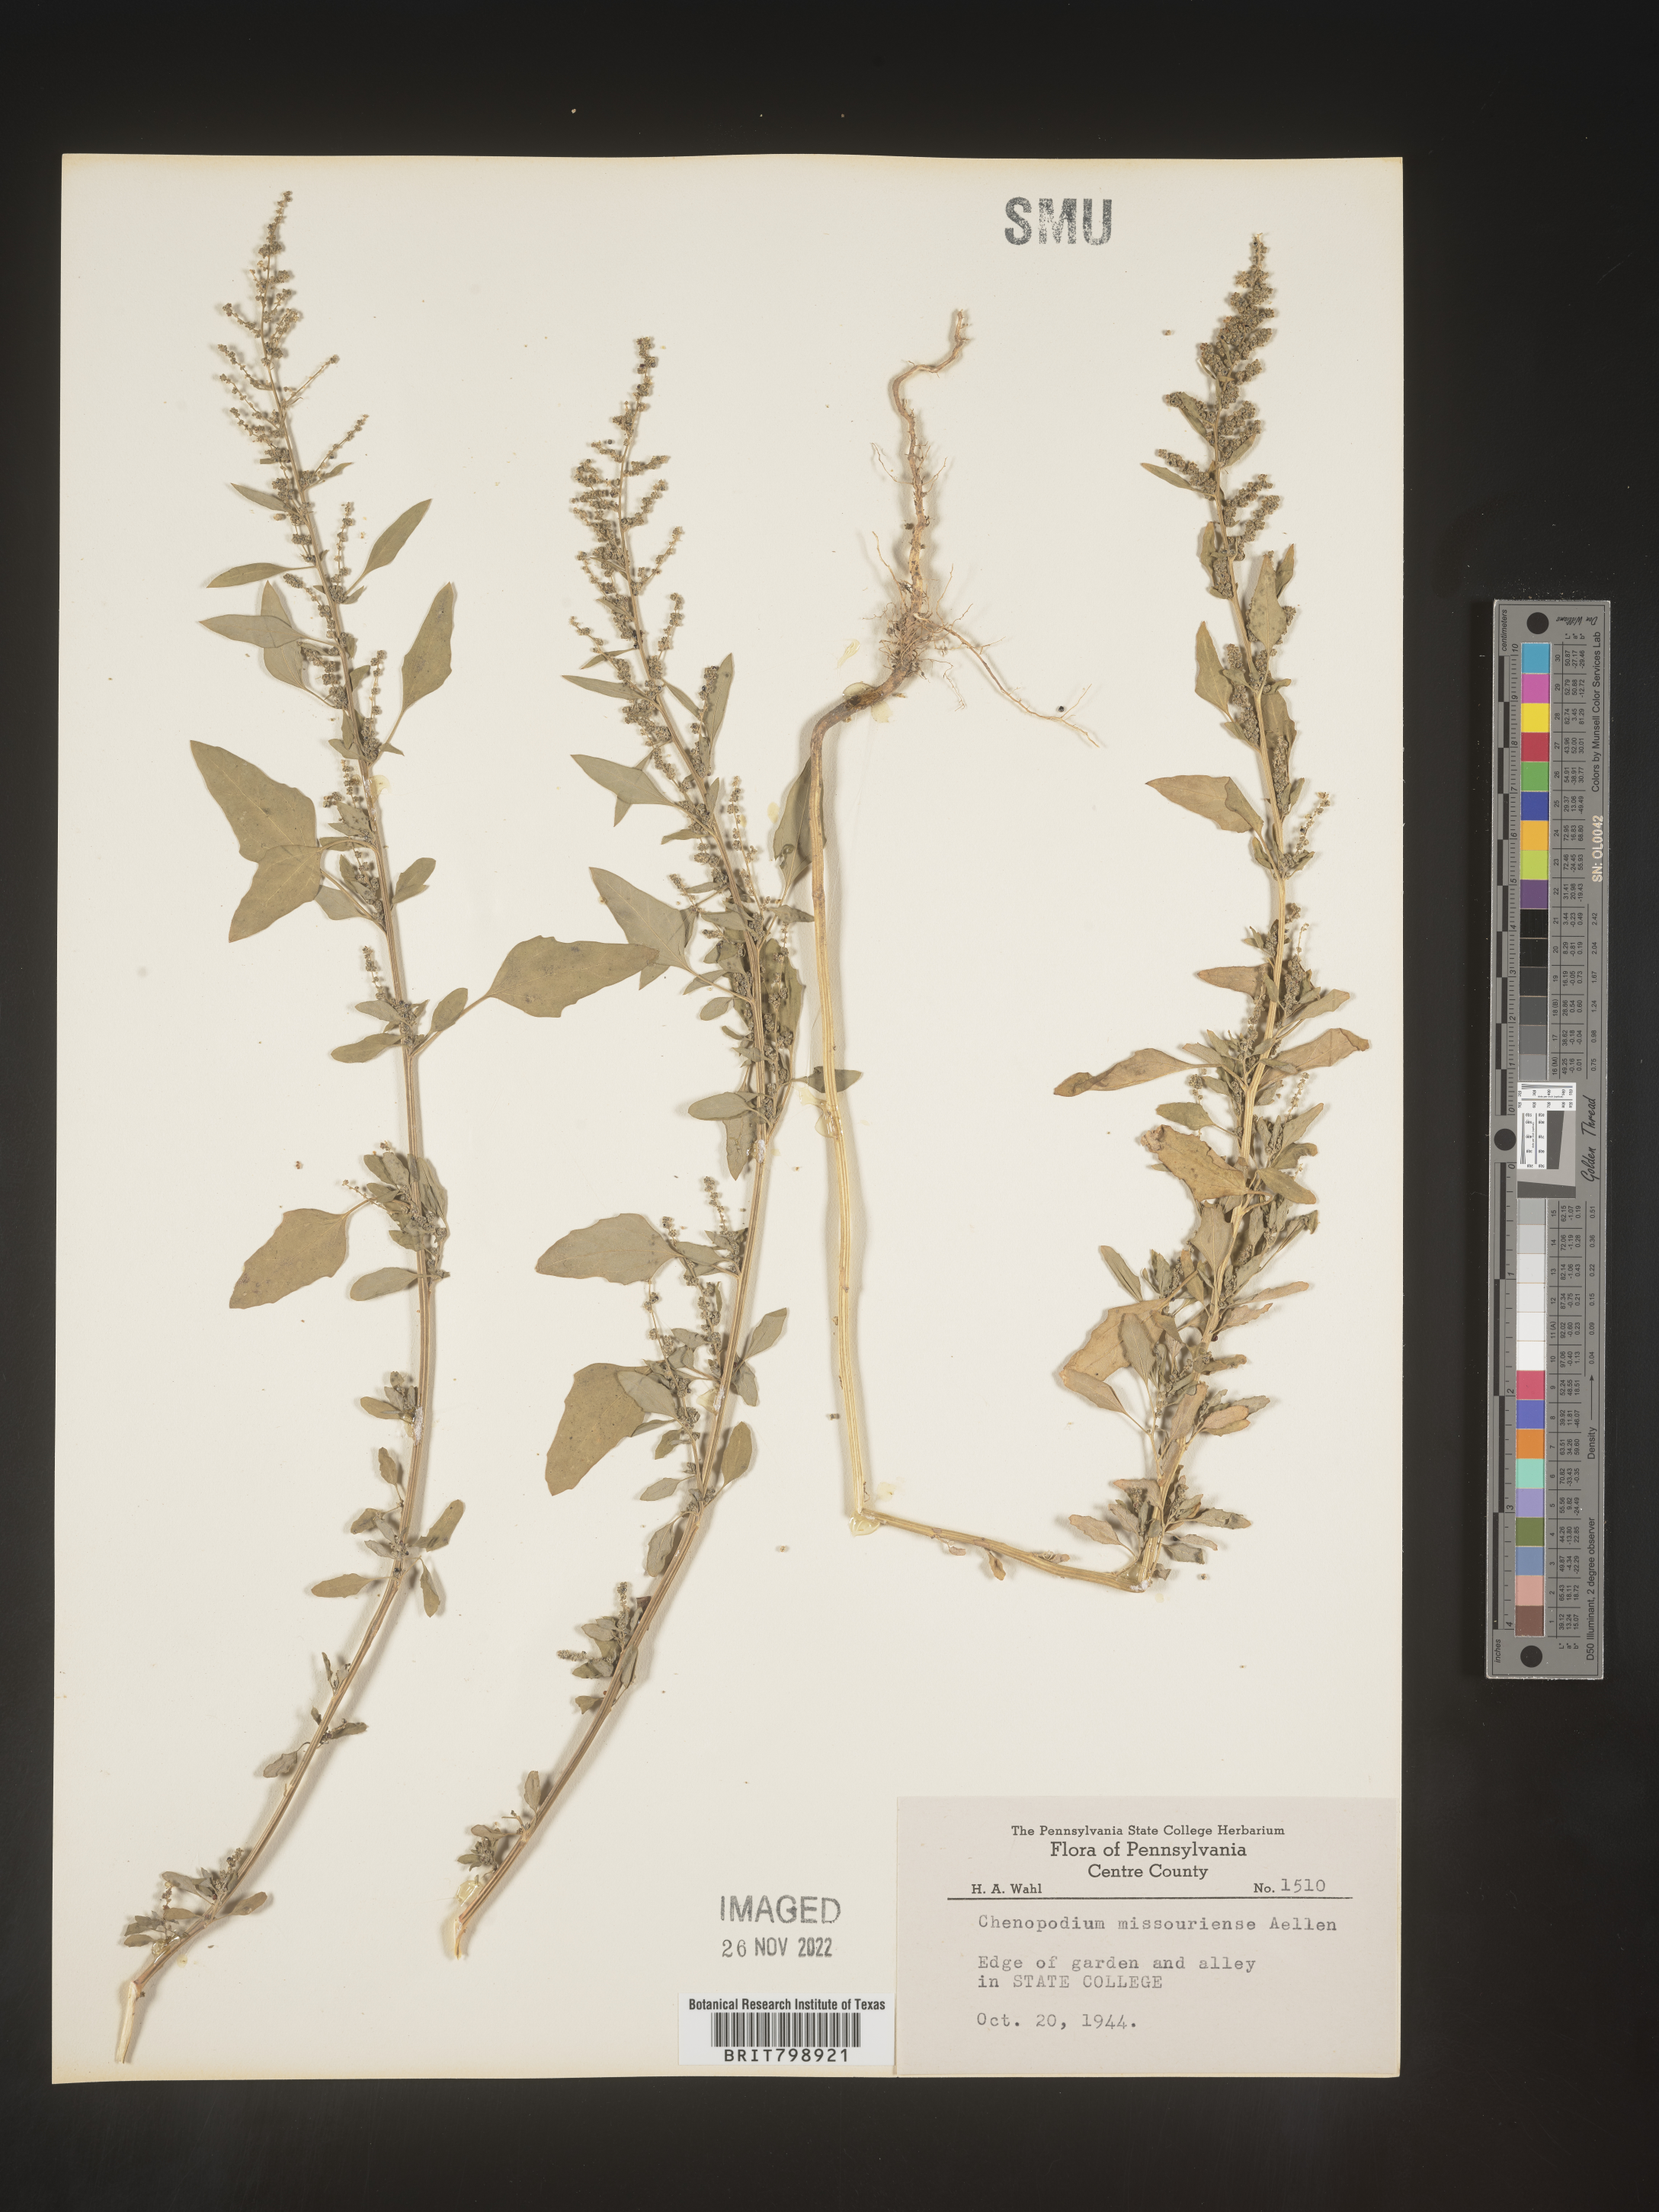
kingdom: Plantae
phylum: Tracheophyta
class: Magnoliopsida
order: Caryophyllales
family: Amaranthaceae
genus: Chenopodium
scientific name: Chenopodium album
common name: Fat-hen
